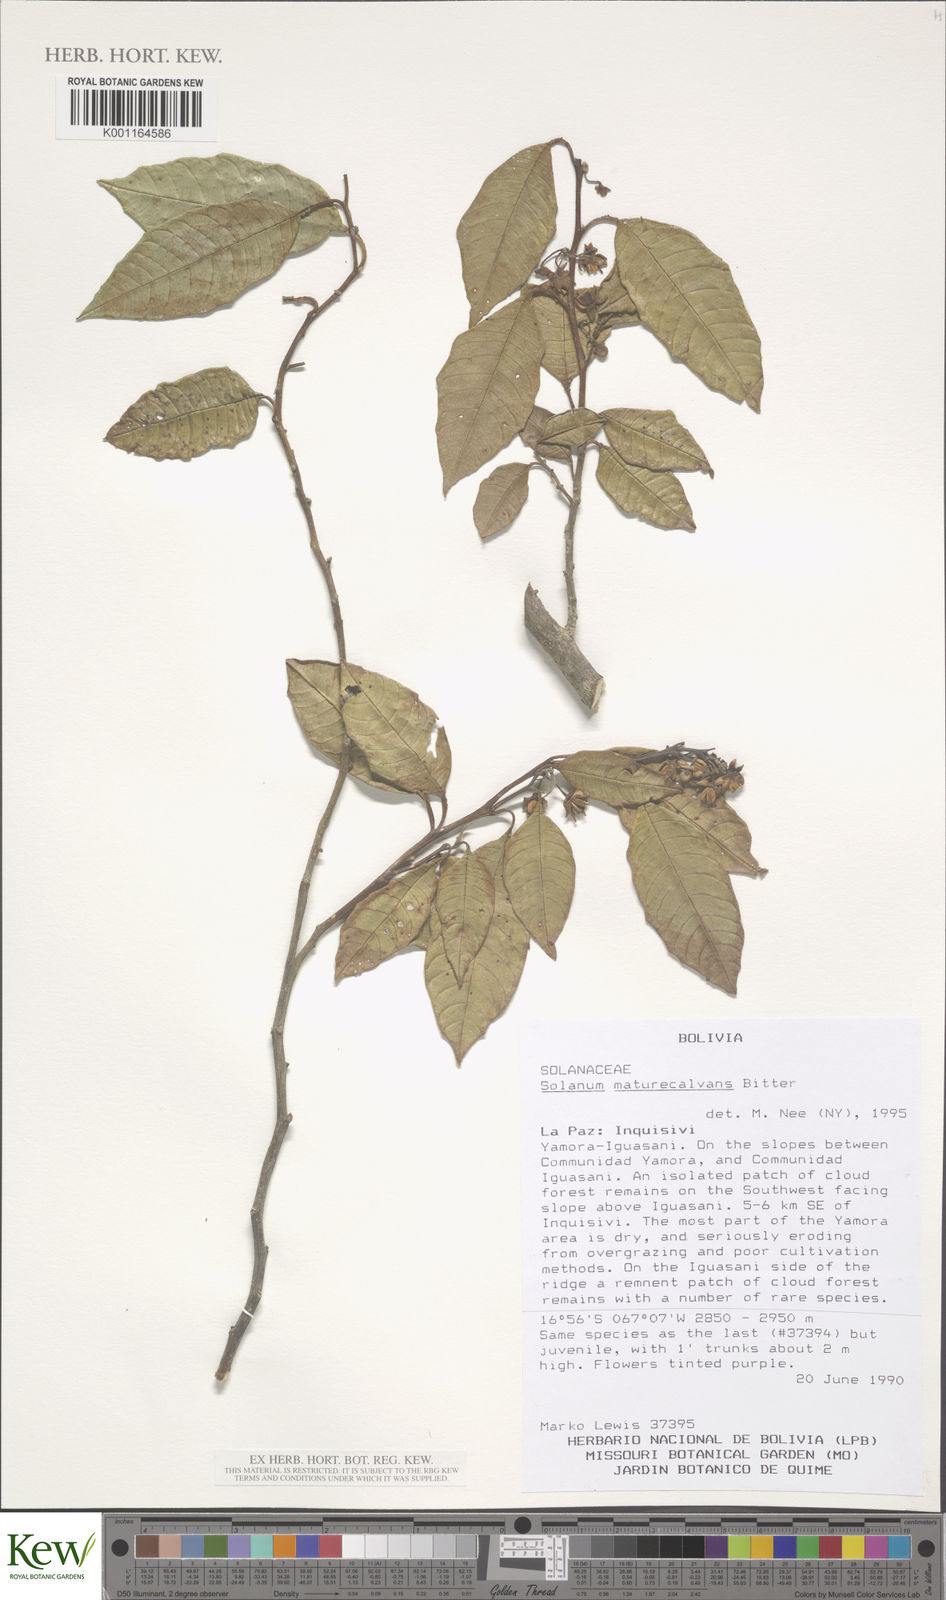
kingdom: Plantae
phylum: Tracheophyta
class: Magnoliopsida
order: Solanales
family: Solanaceae
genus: Solanum
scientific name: Solanum maturecalvans
